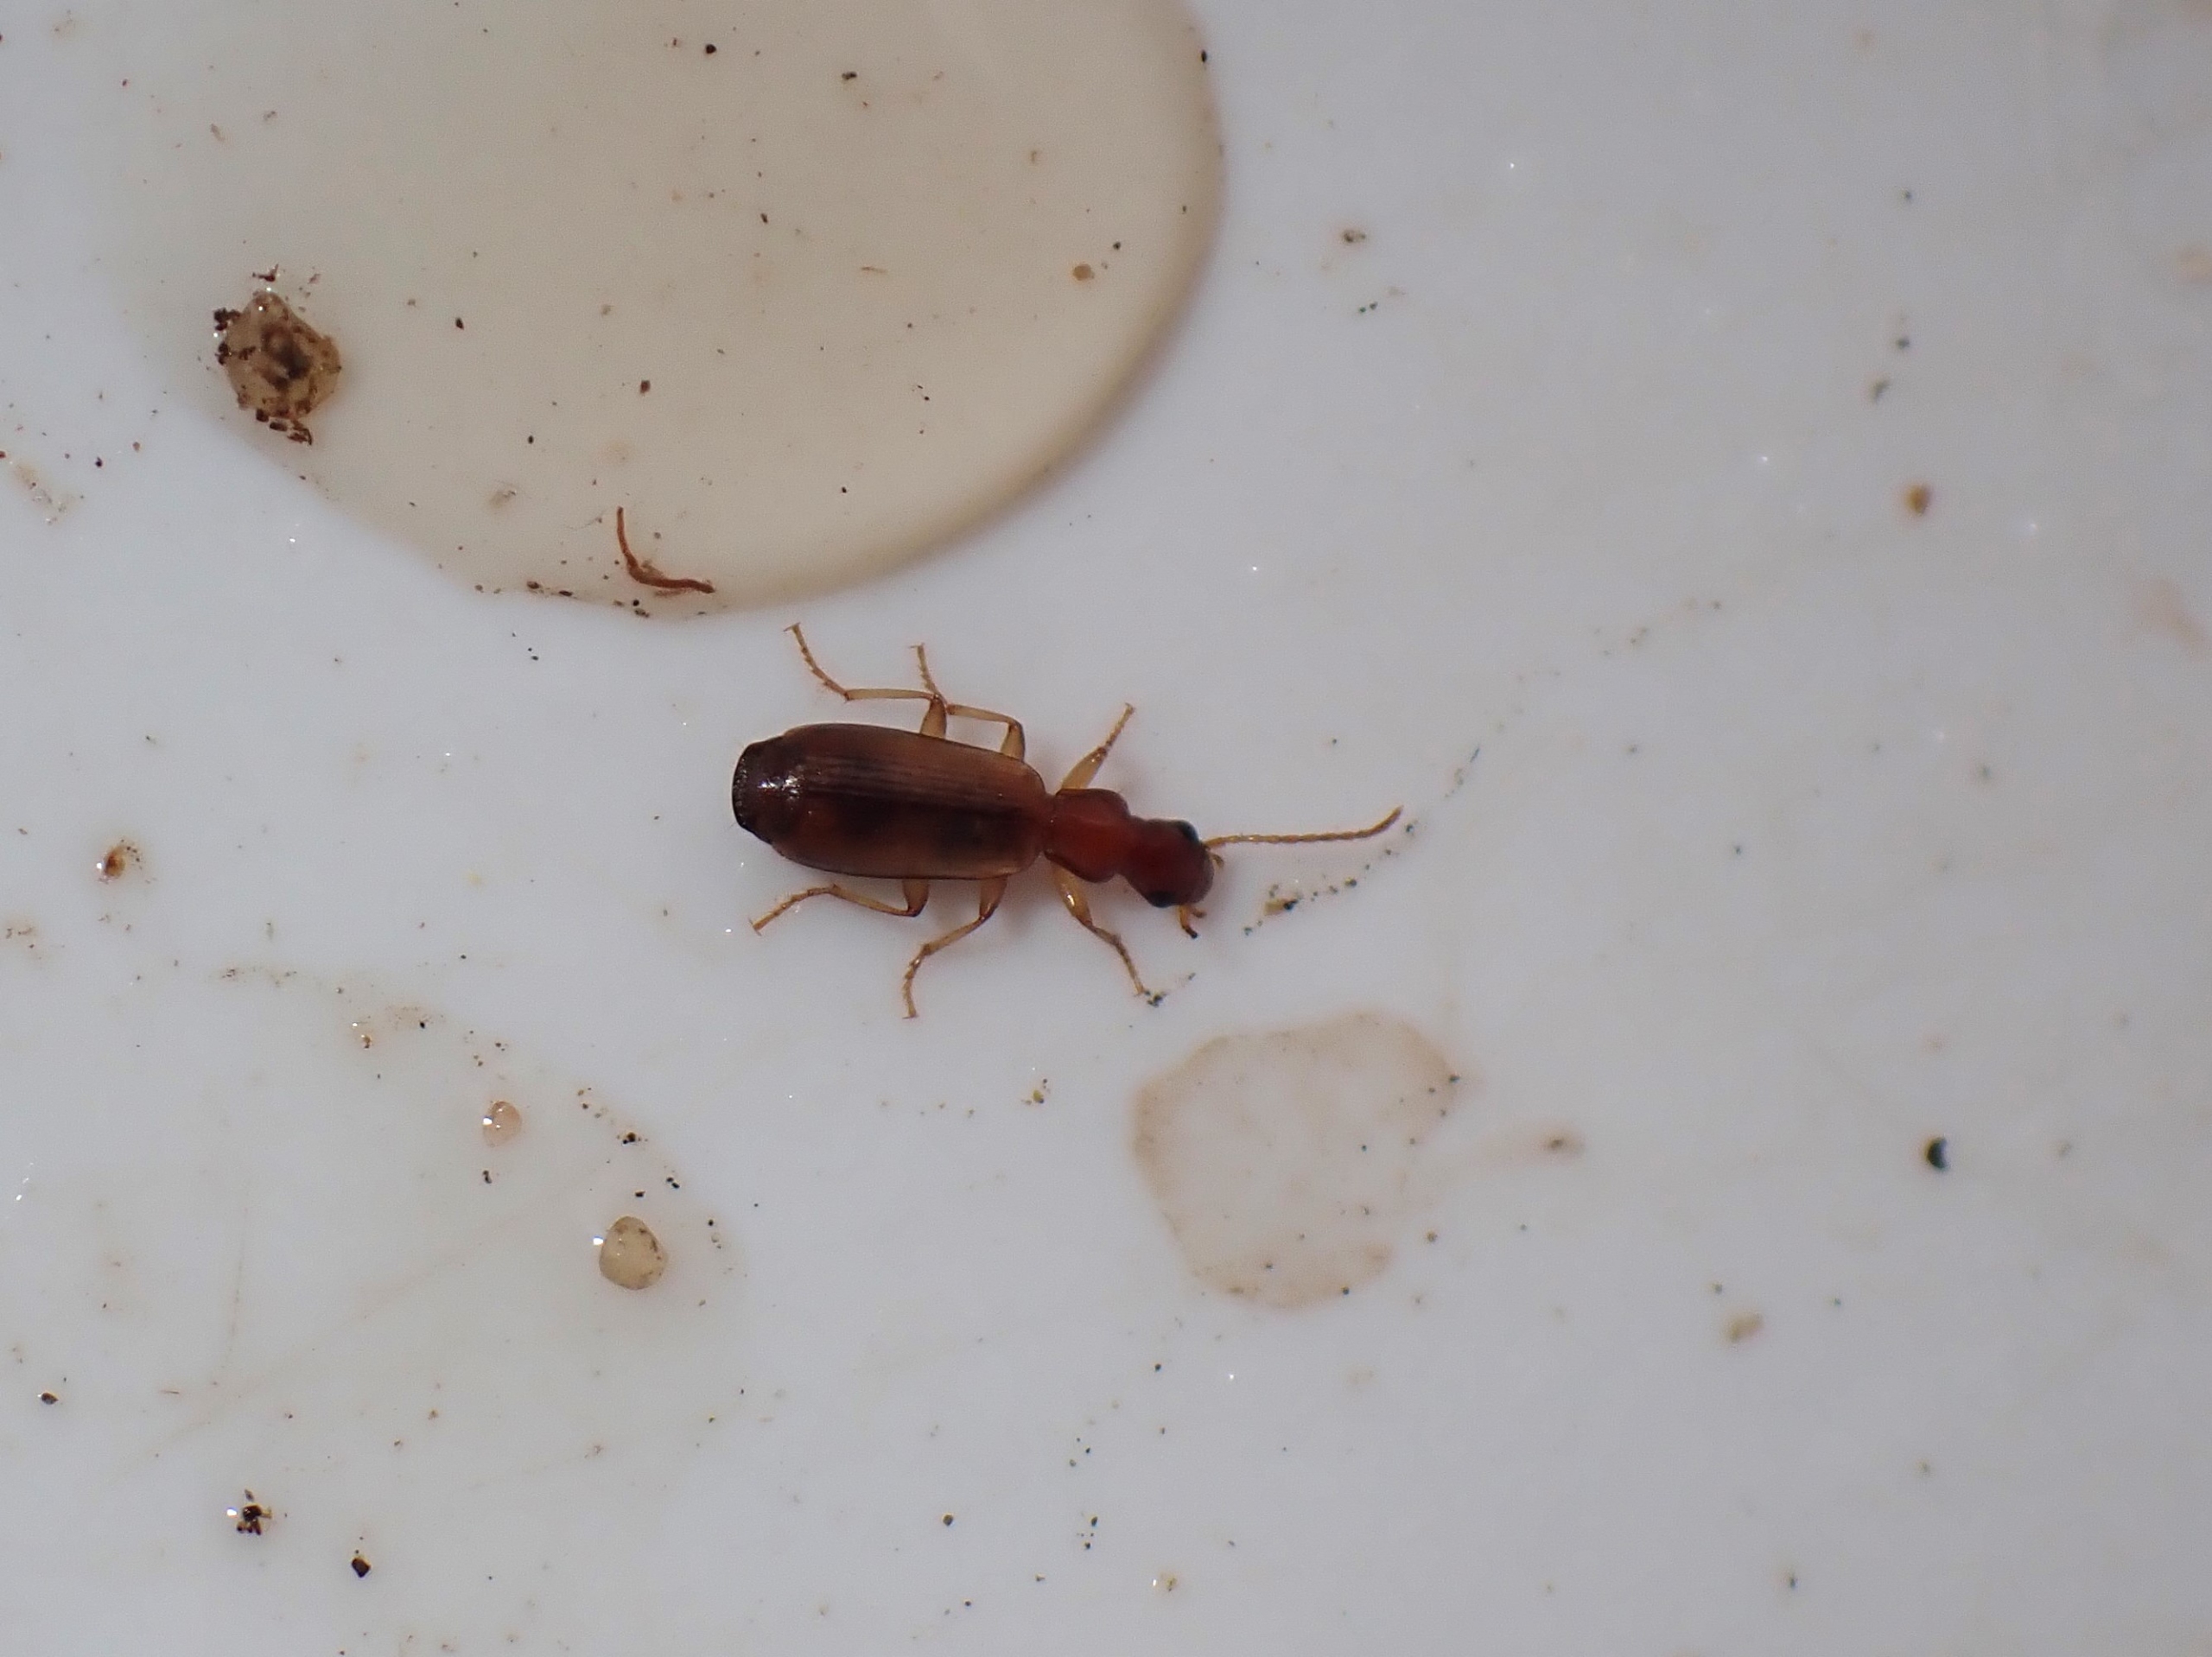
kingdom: Animalia
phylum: Arthropoda
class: Insecta
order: Coleoptera
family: Carabidae
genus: Paradromius
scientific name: Paradromius linearis
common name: Smal sivløber
